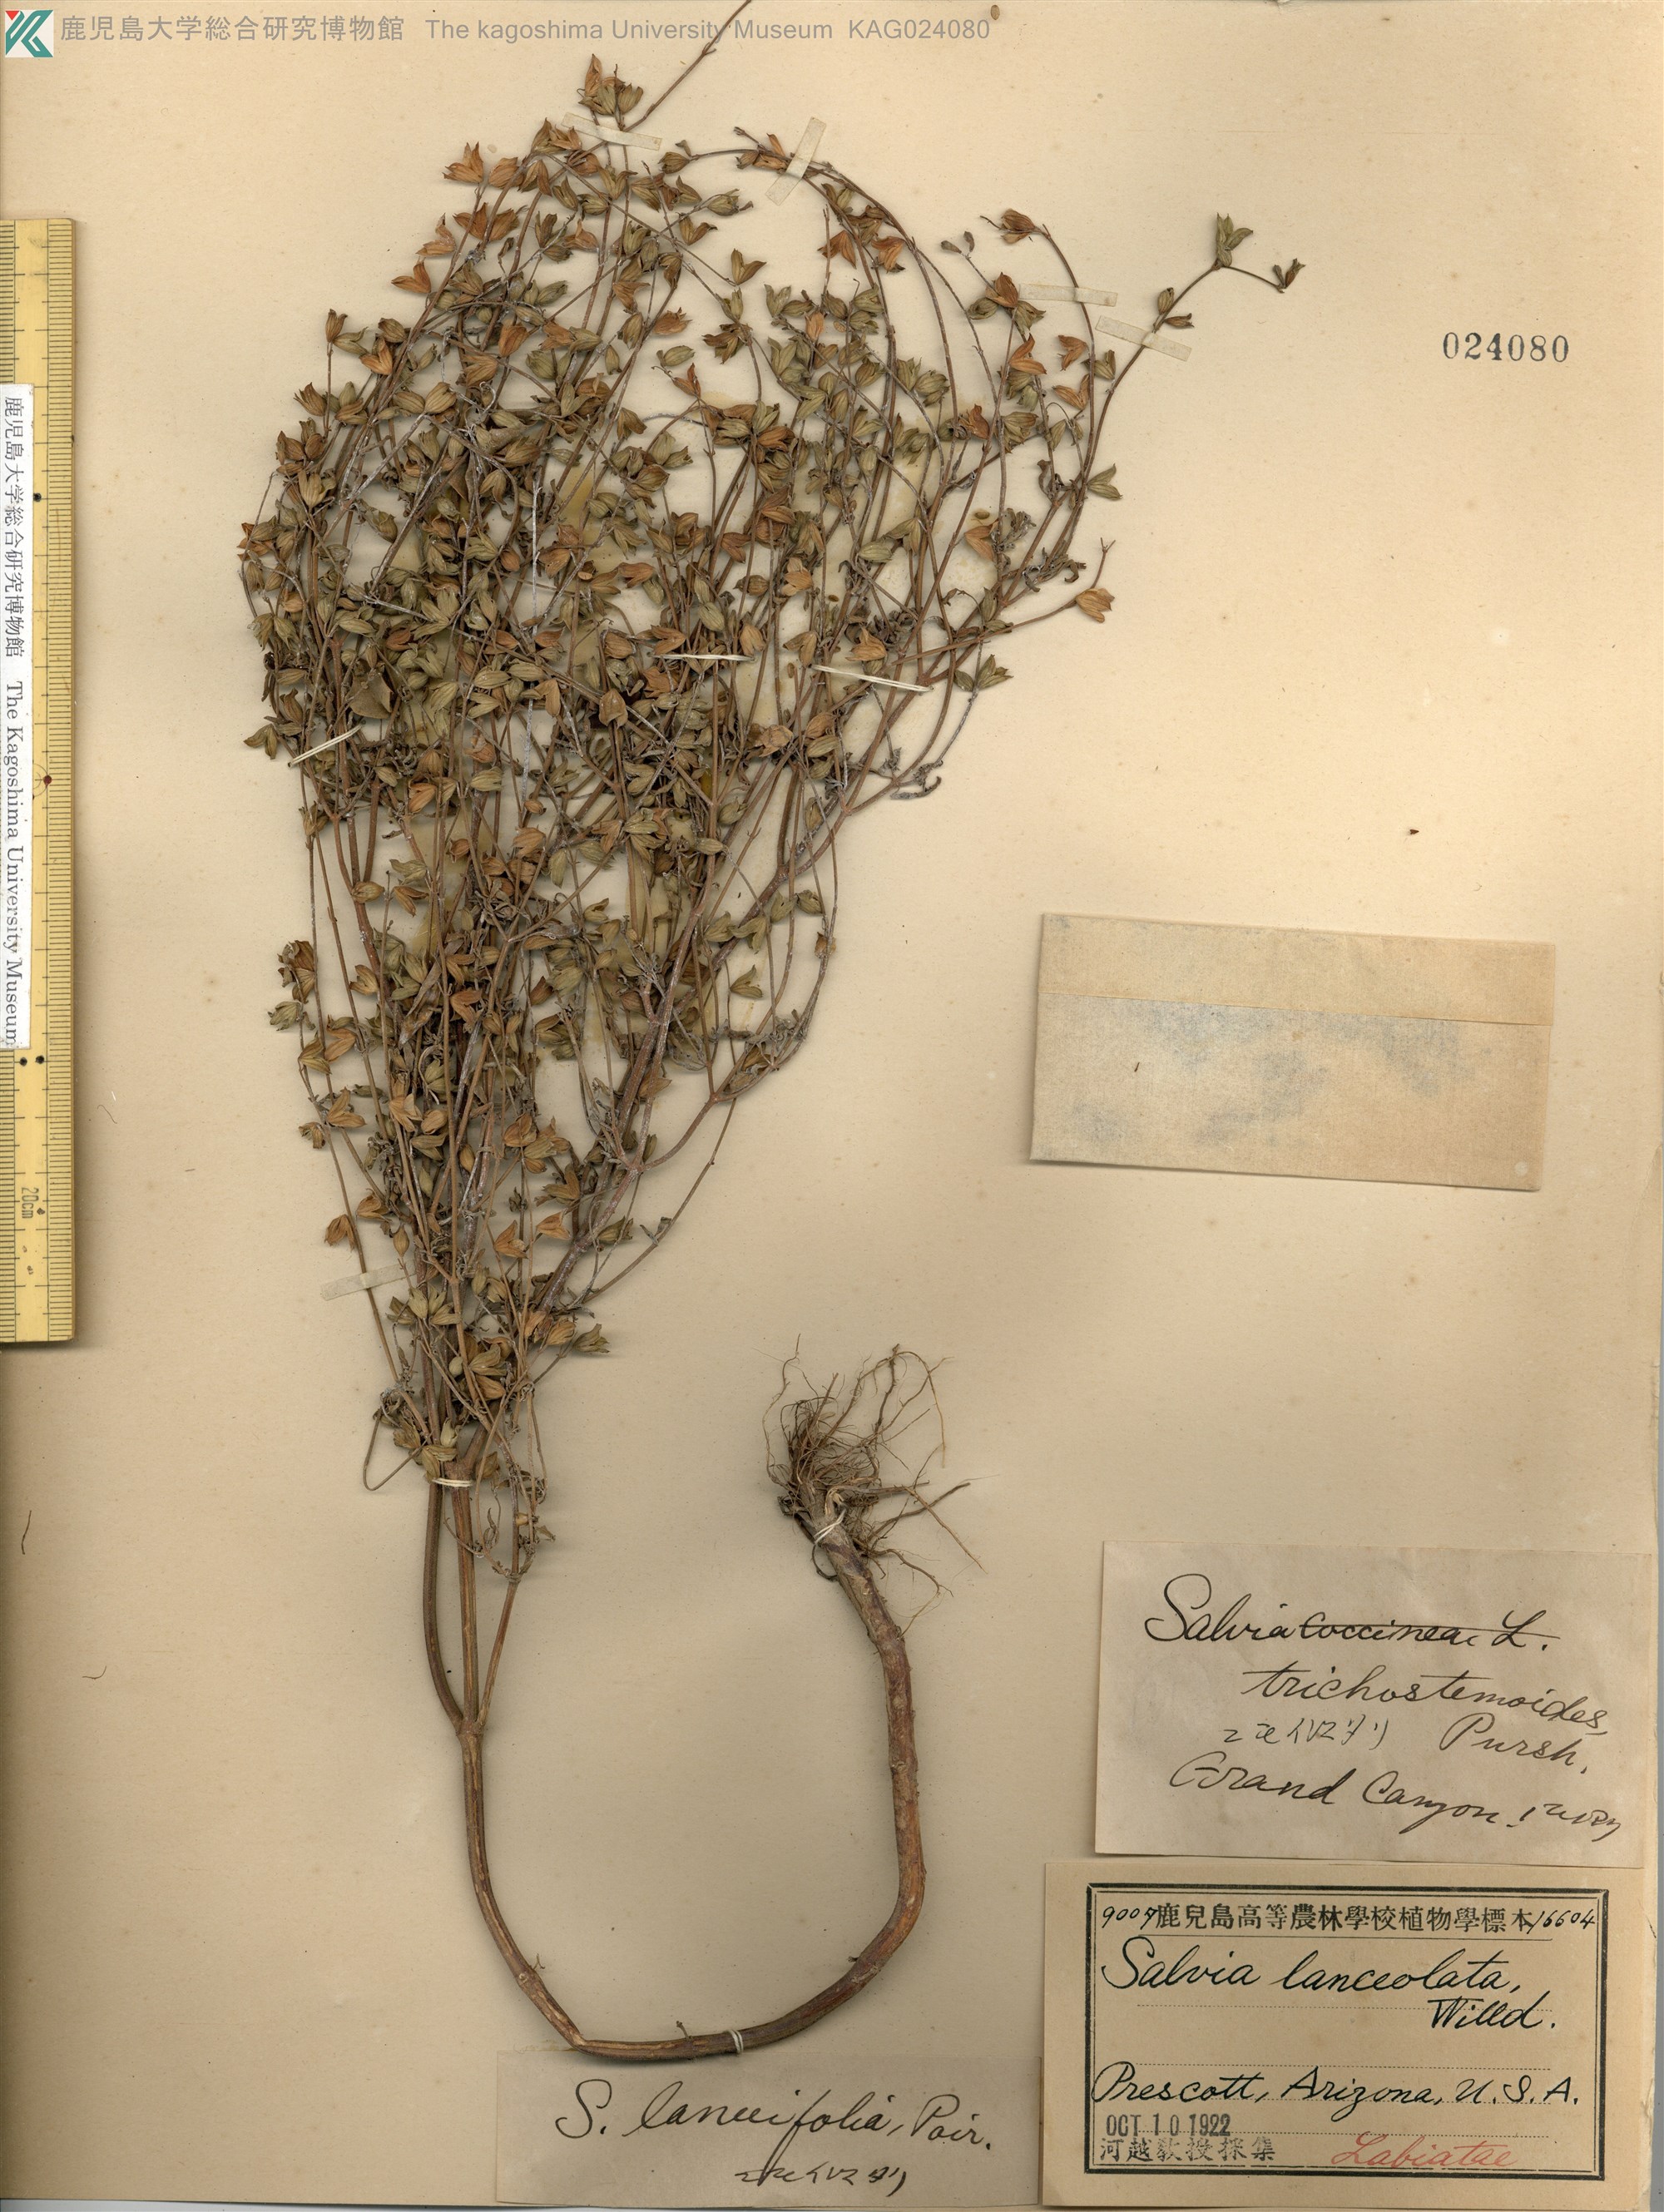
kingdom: Plantae
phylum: Tracheophyta
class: Magnoliopsida
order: Lamiales
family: Lamiaceae
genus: Salvia
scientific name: Salvia lanceolata
